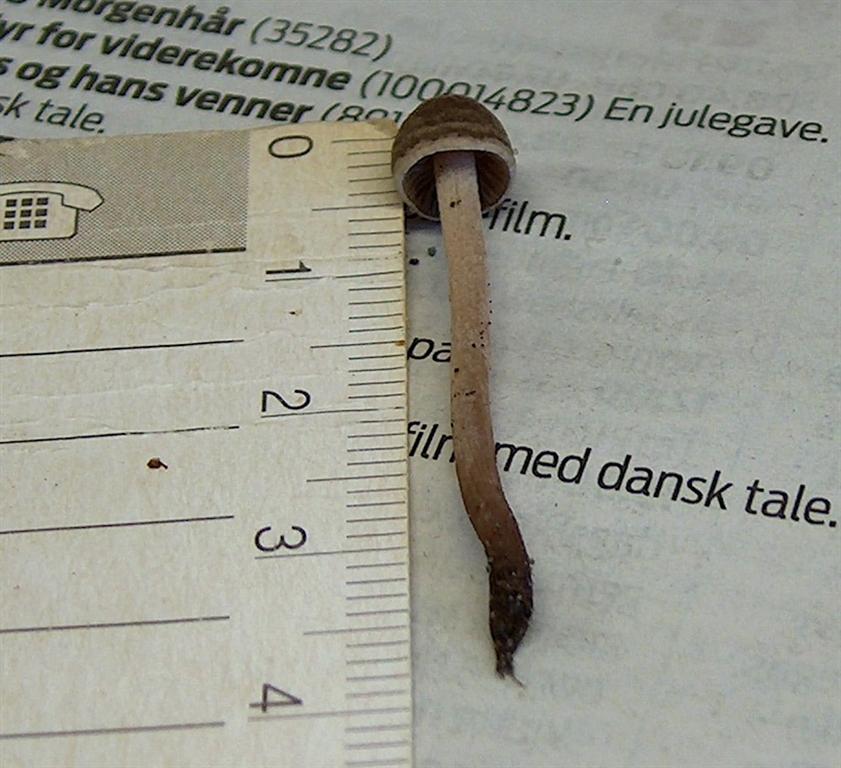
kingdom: Fungi
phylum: Basidiomycota
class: Agaricomycetes
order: Agaricales
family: Bolbitiaceae
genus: Panaeolina
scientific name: Panaeolina foenisecii
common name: høslætsvamp
